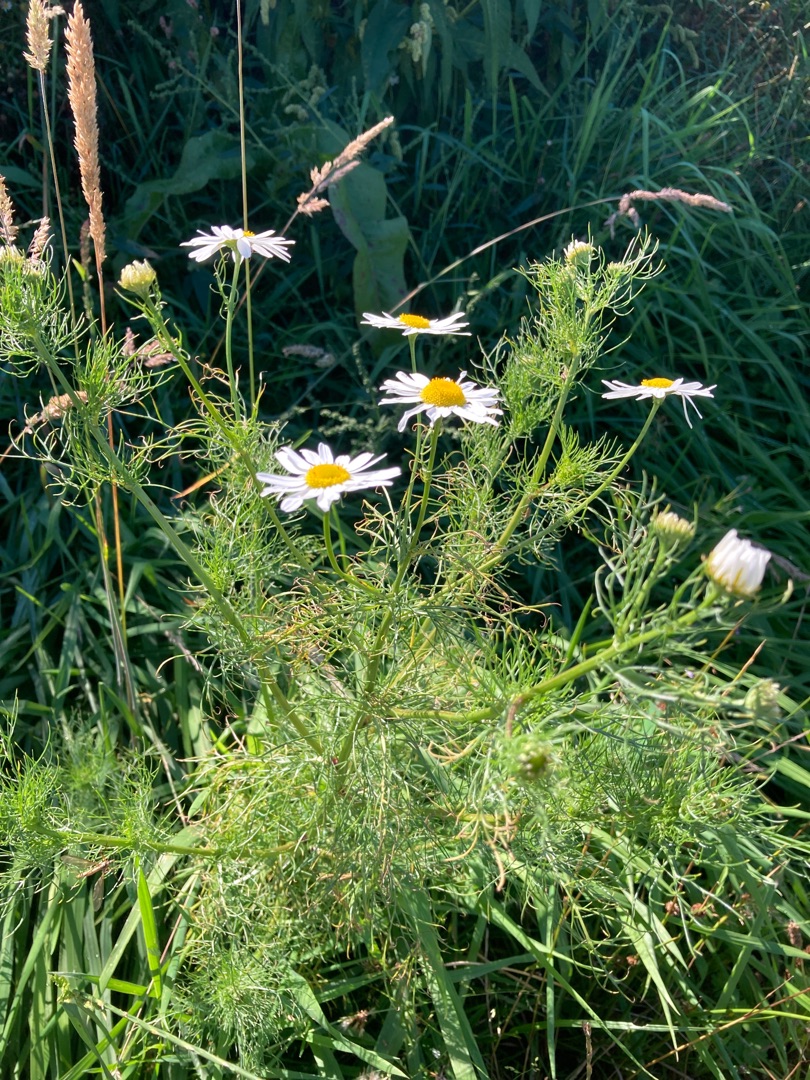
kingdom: Plantae
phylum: Tracheophyta
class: Magnoliopsida
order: Asterales
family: Asteraceae
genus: Tripleurospermum
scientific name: Tripleurospermum inodorum
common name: Lugtløs kamille
